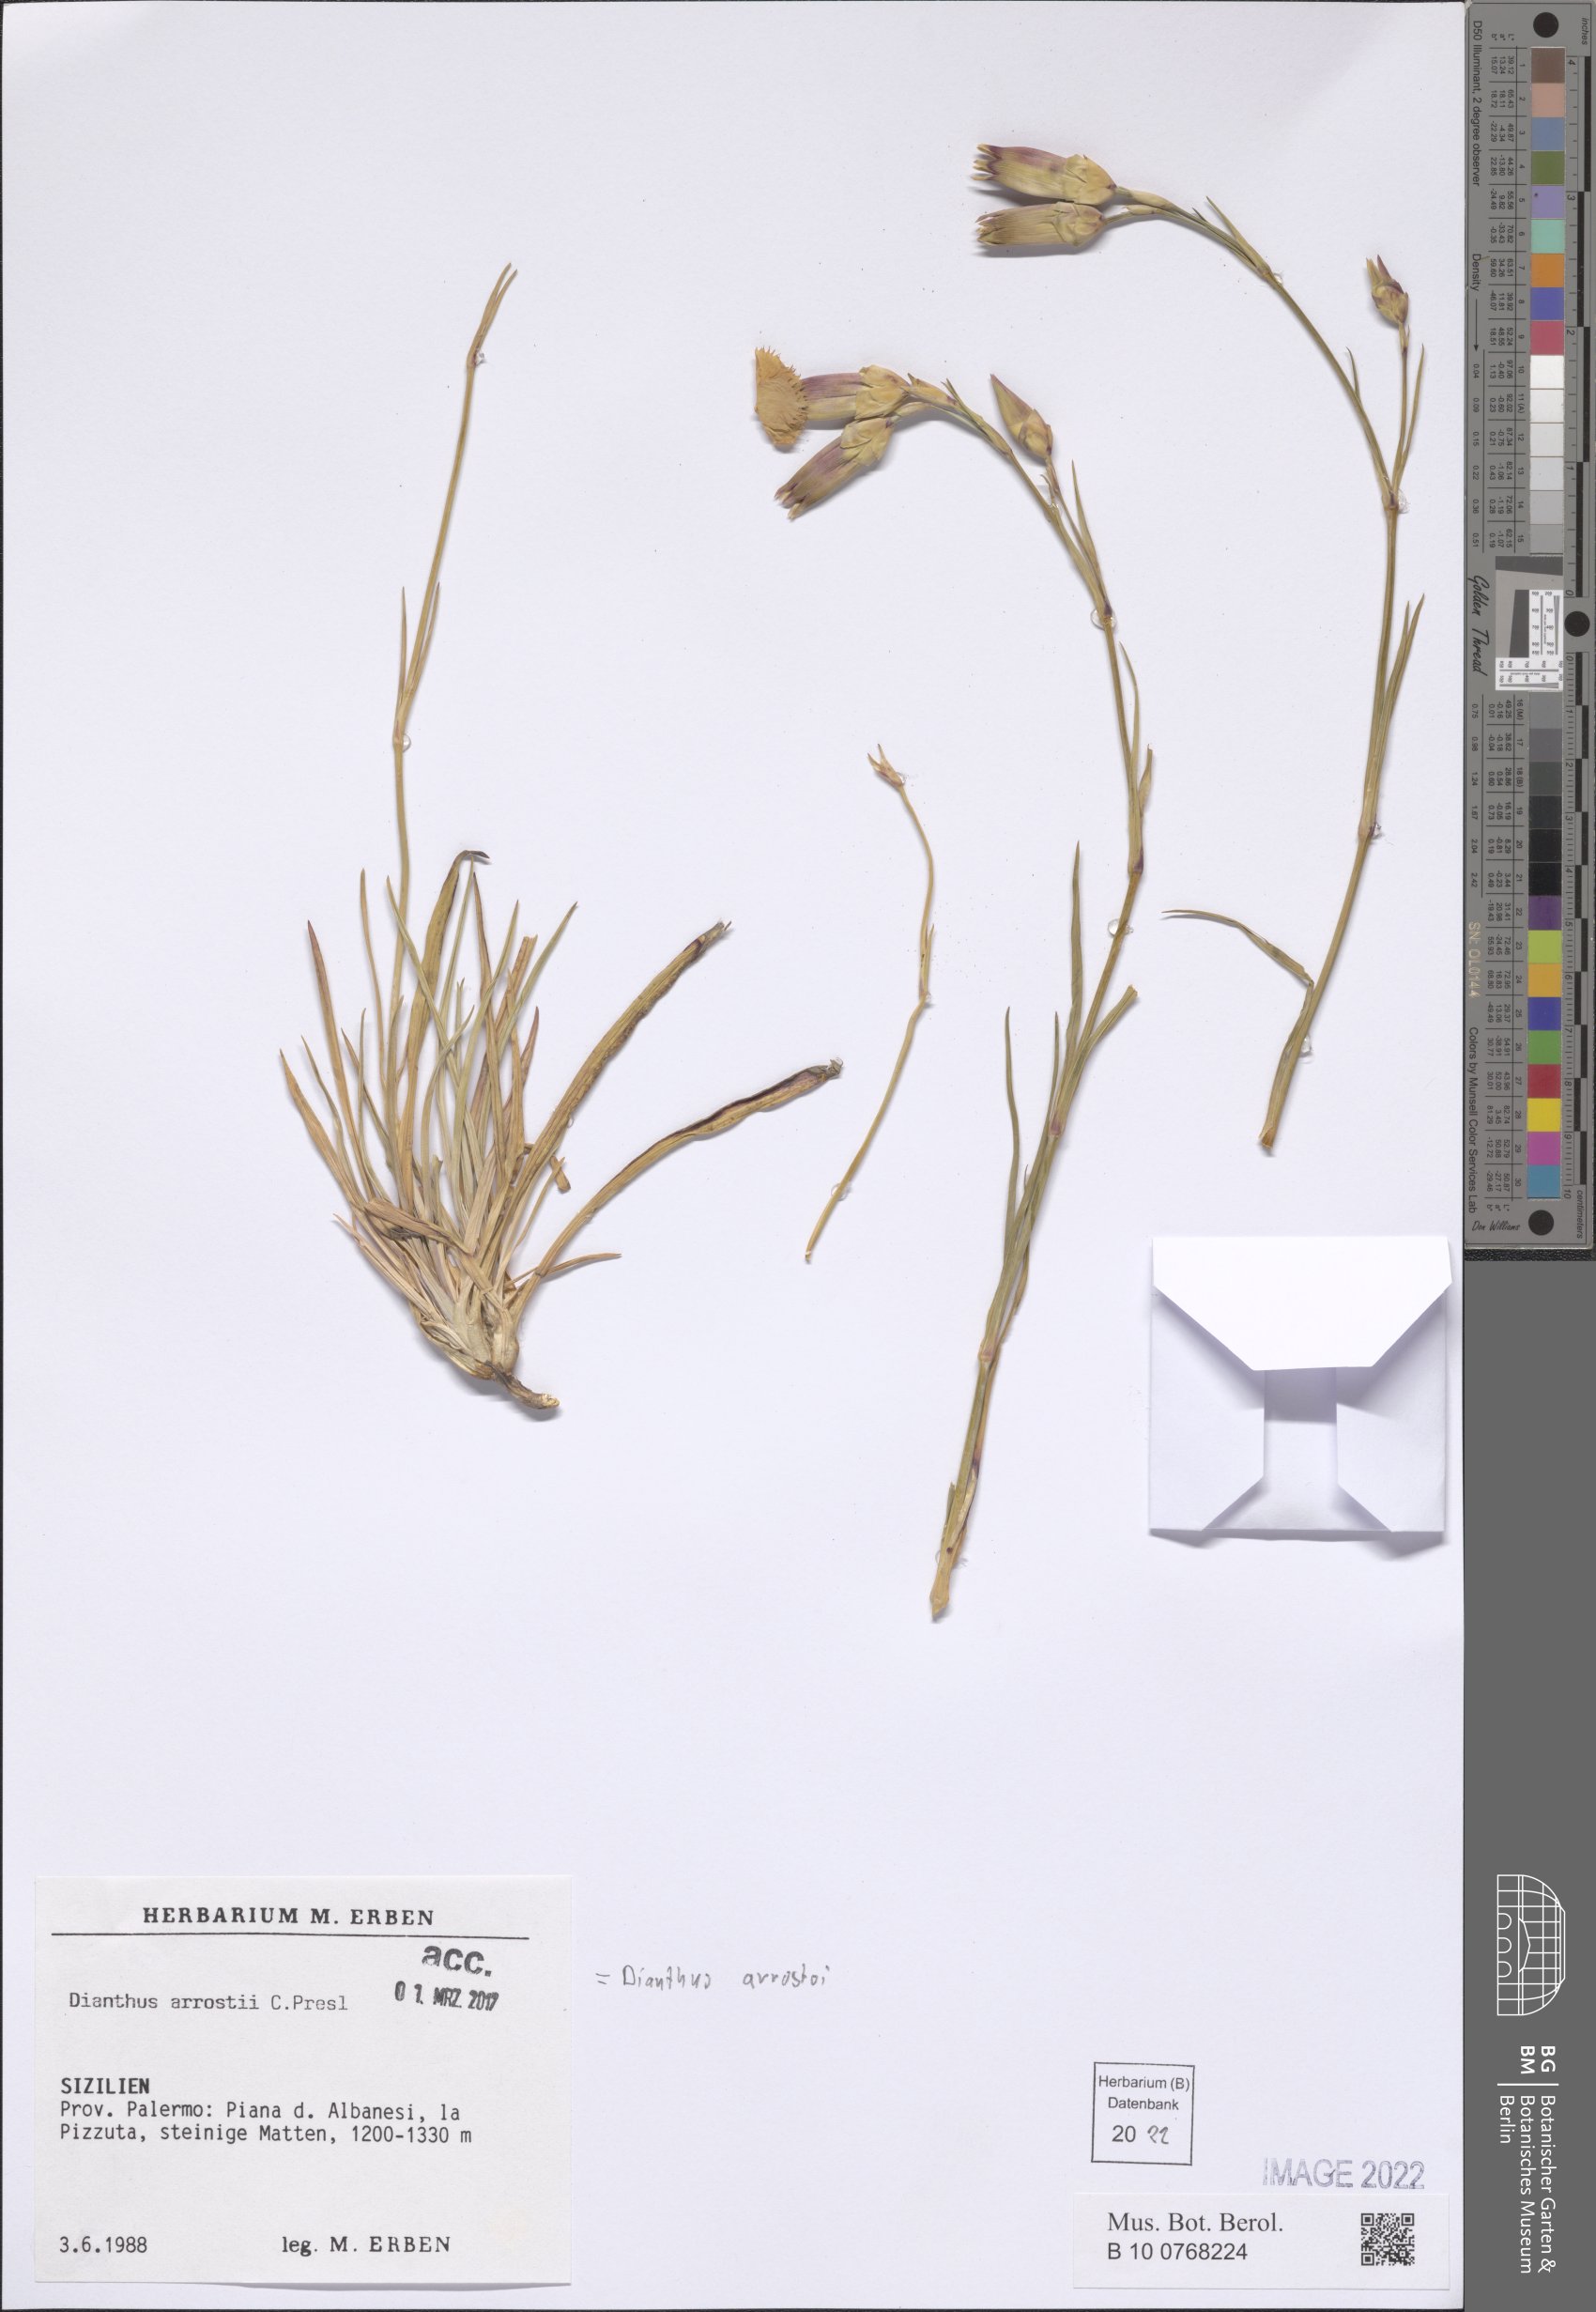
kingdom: Plantae
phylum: Tracheophyta
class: Magnoliopsida
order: Caryophyllales
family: Caryophyllaceae
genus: Dianthus
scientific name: Dianthus arrostoi
